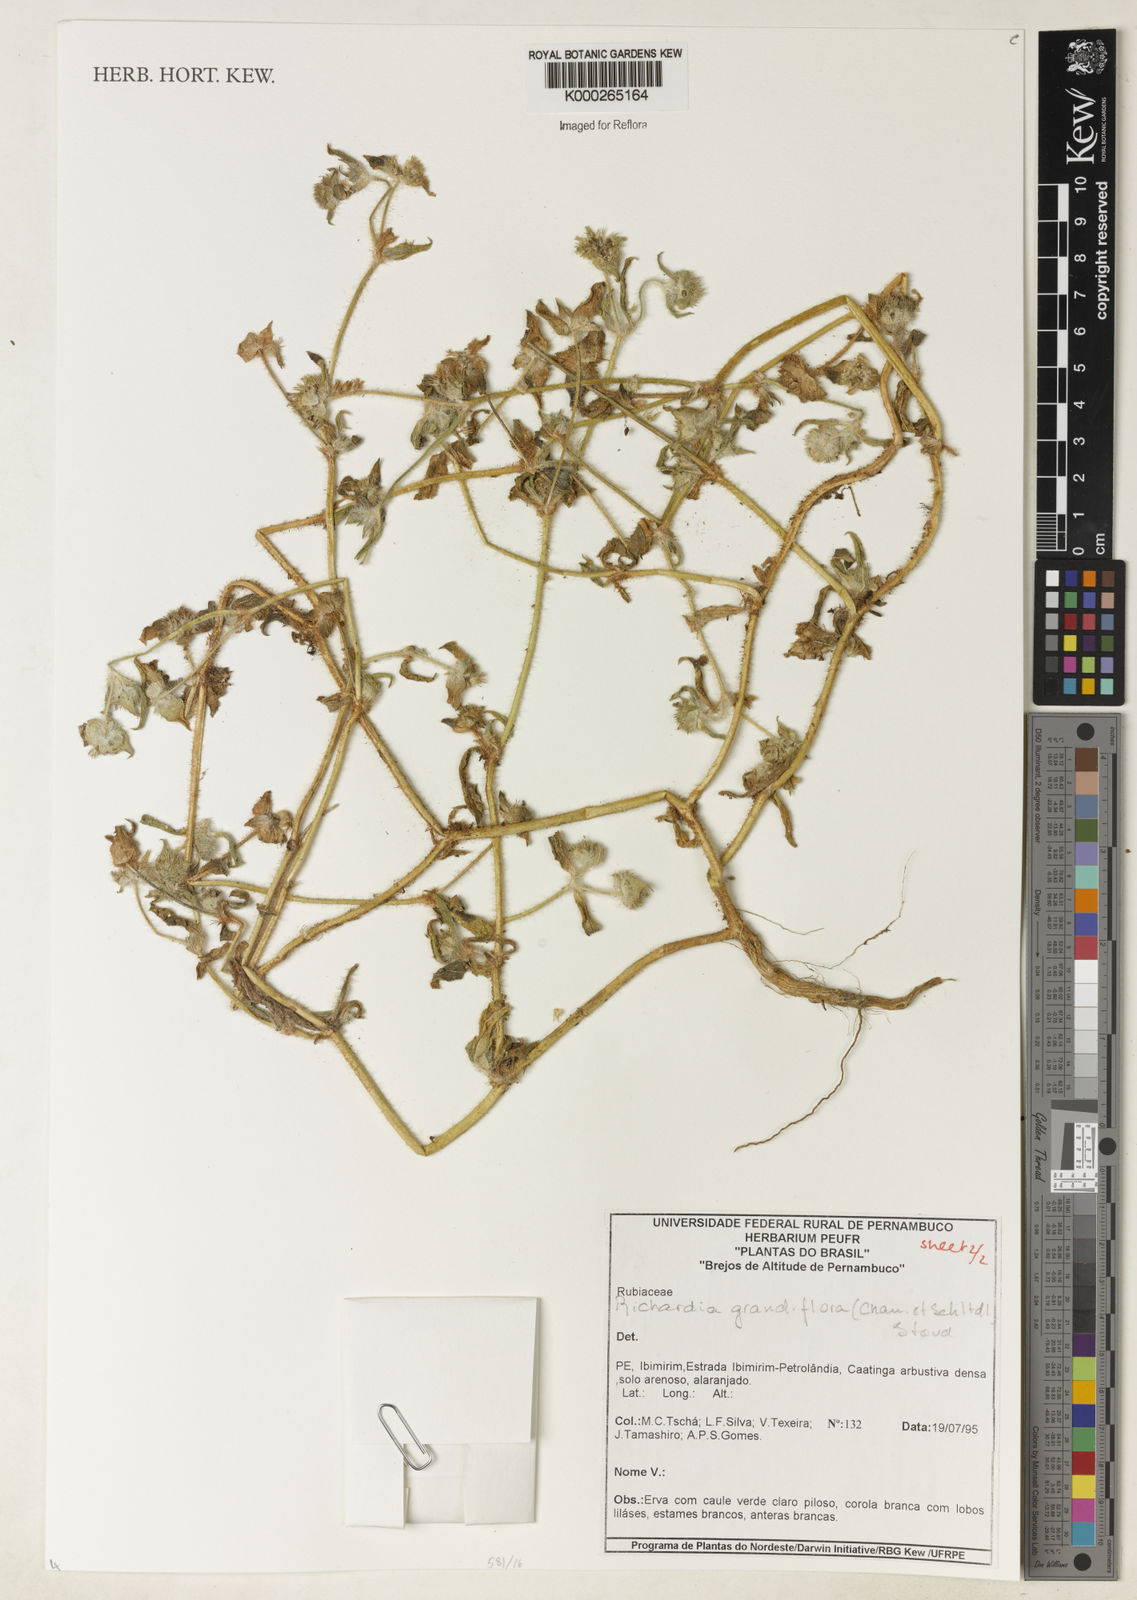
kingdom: Plantae
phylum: Tracheophyta
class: Magnoliopsida
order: Gentianales
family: Rubiaceae
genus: Richardia
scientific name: Richardia grandiflora
